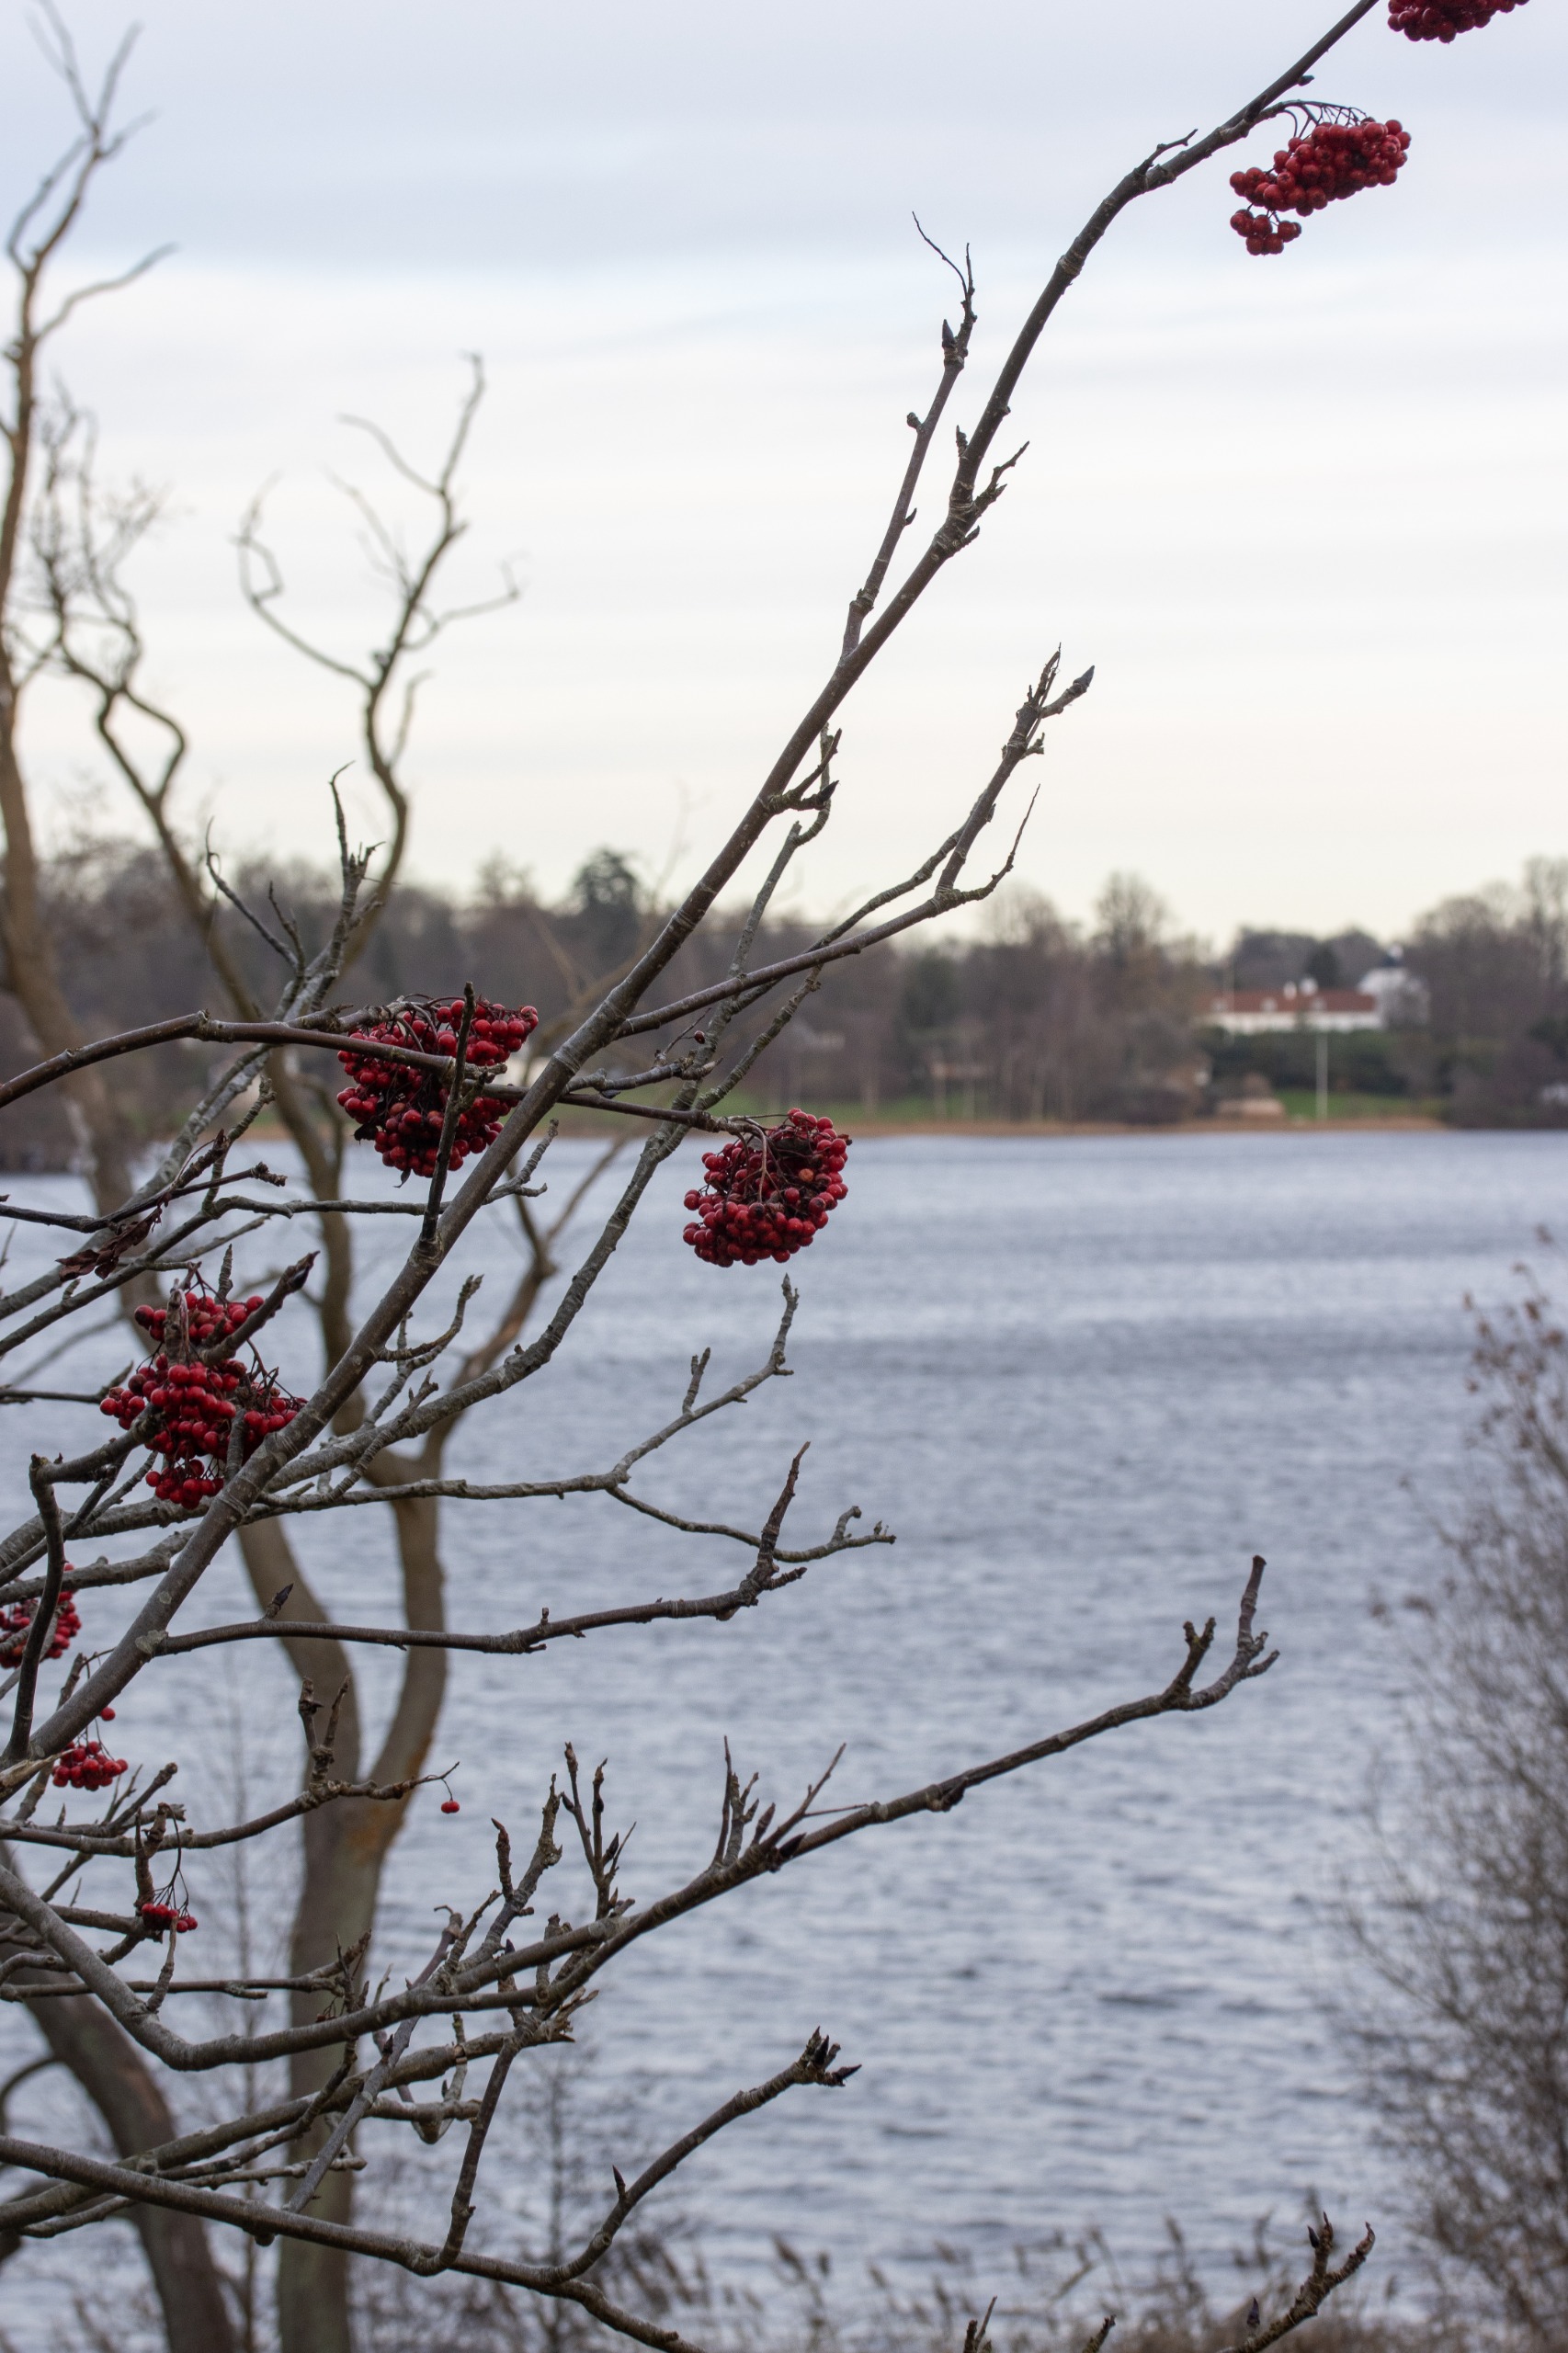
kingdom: Plantae
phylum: Tracheophyta
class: Magnoliopsida
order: Rosales
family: Rosaceae
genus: Sorbus
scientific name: Sorbus aucuparia
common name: Almindelig røn
